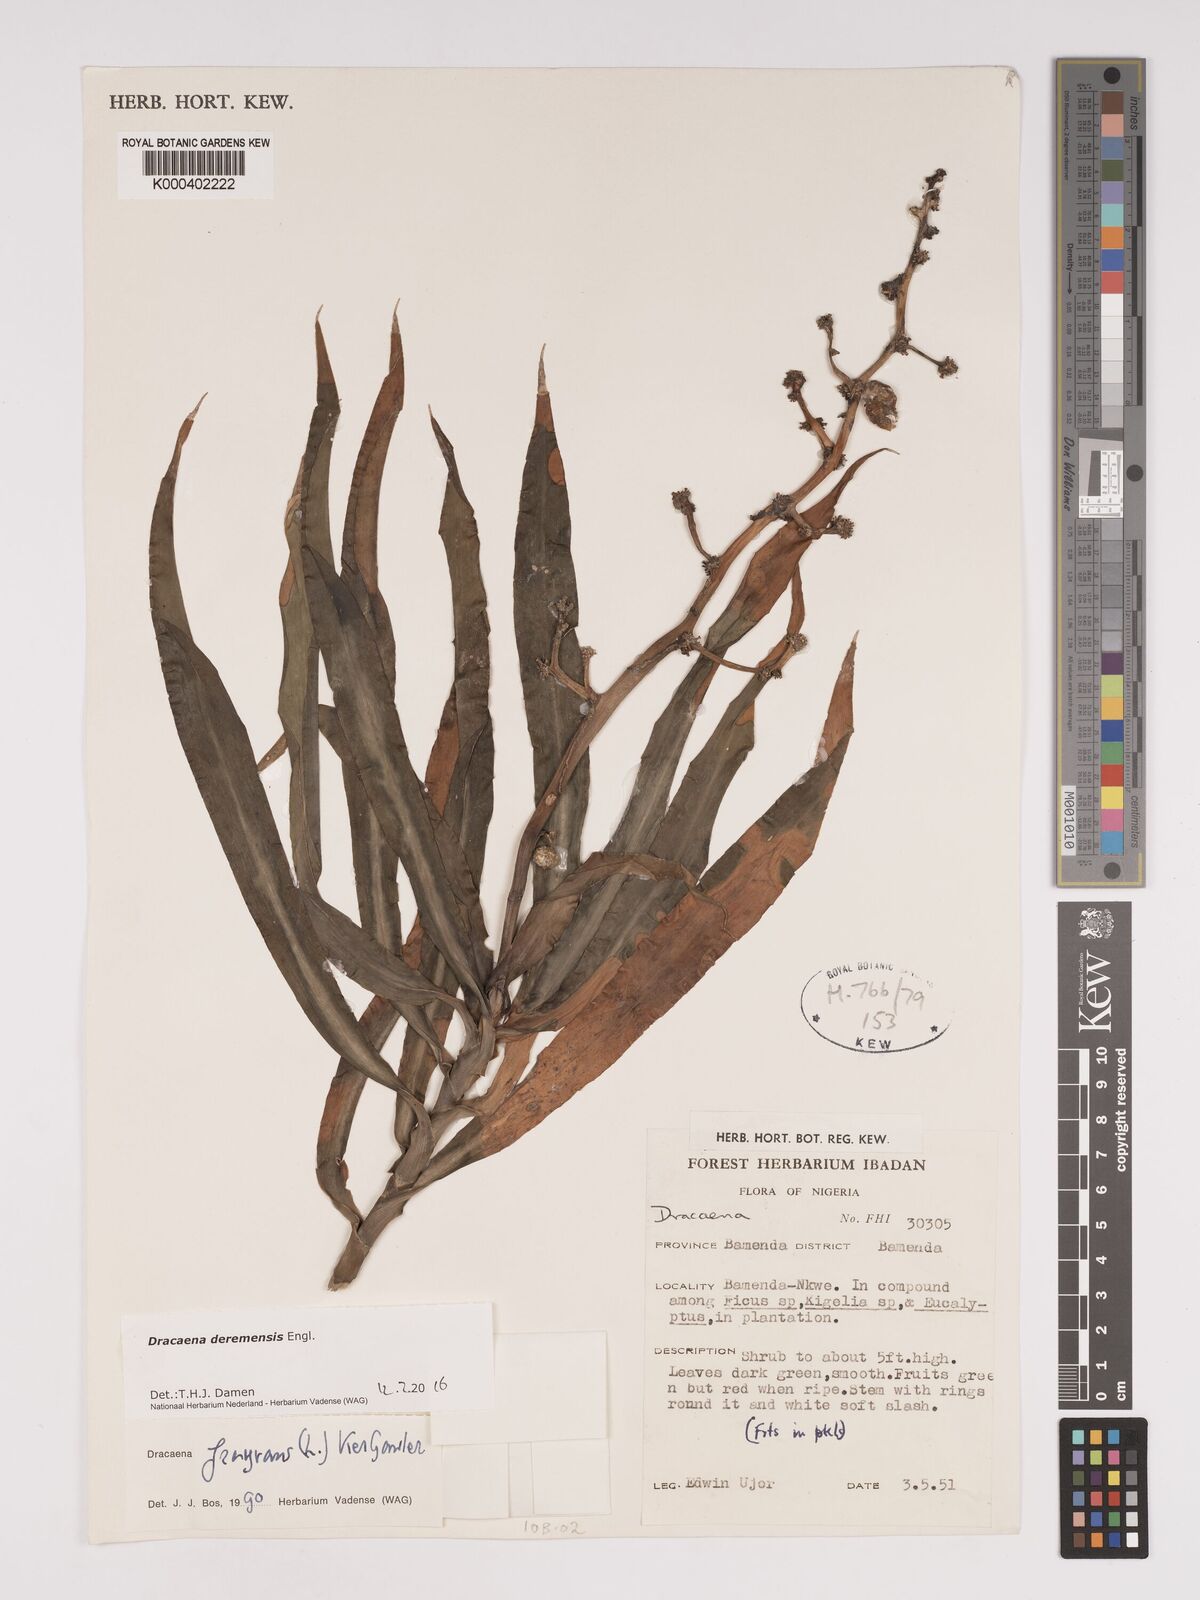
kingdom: Plantae
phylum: Tracheophyta
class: Liliopsida
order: Asparagales
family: Asparagaceae
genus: Dracaena
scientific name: Dracaena fragrans
